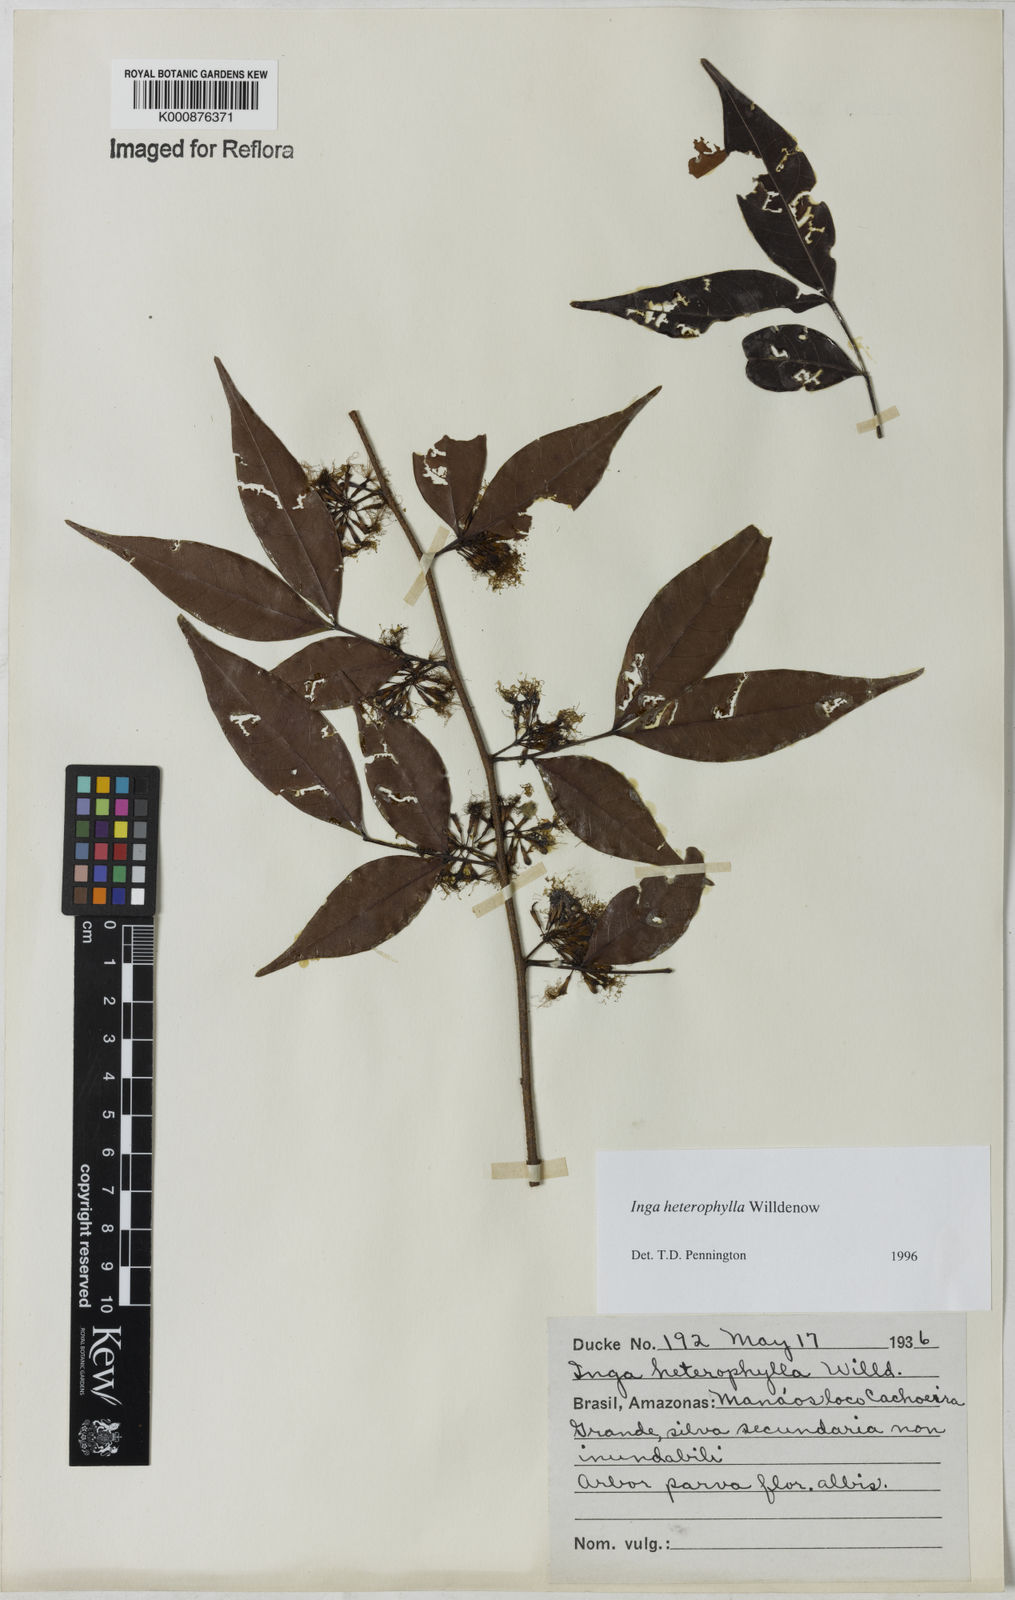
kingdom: Plantae
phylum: Tracheophyta
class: Magnoliopsida
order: Fabales
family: Fabaceae
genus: Inga
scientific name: Inga heterophylla
